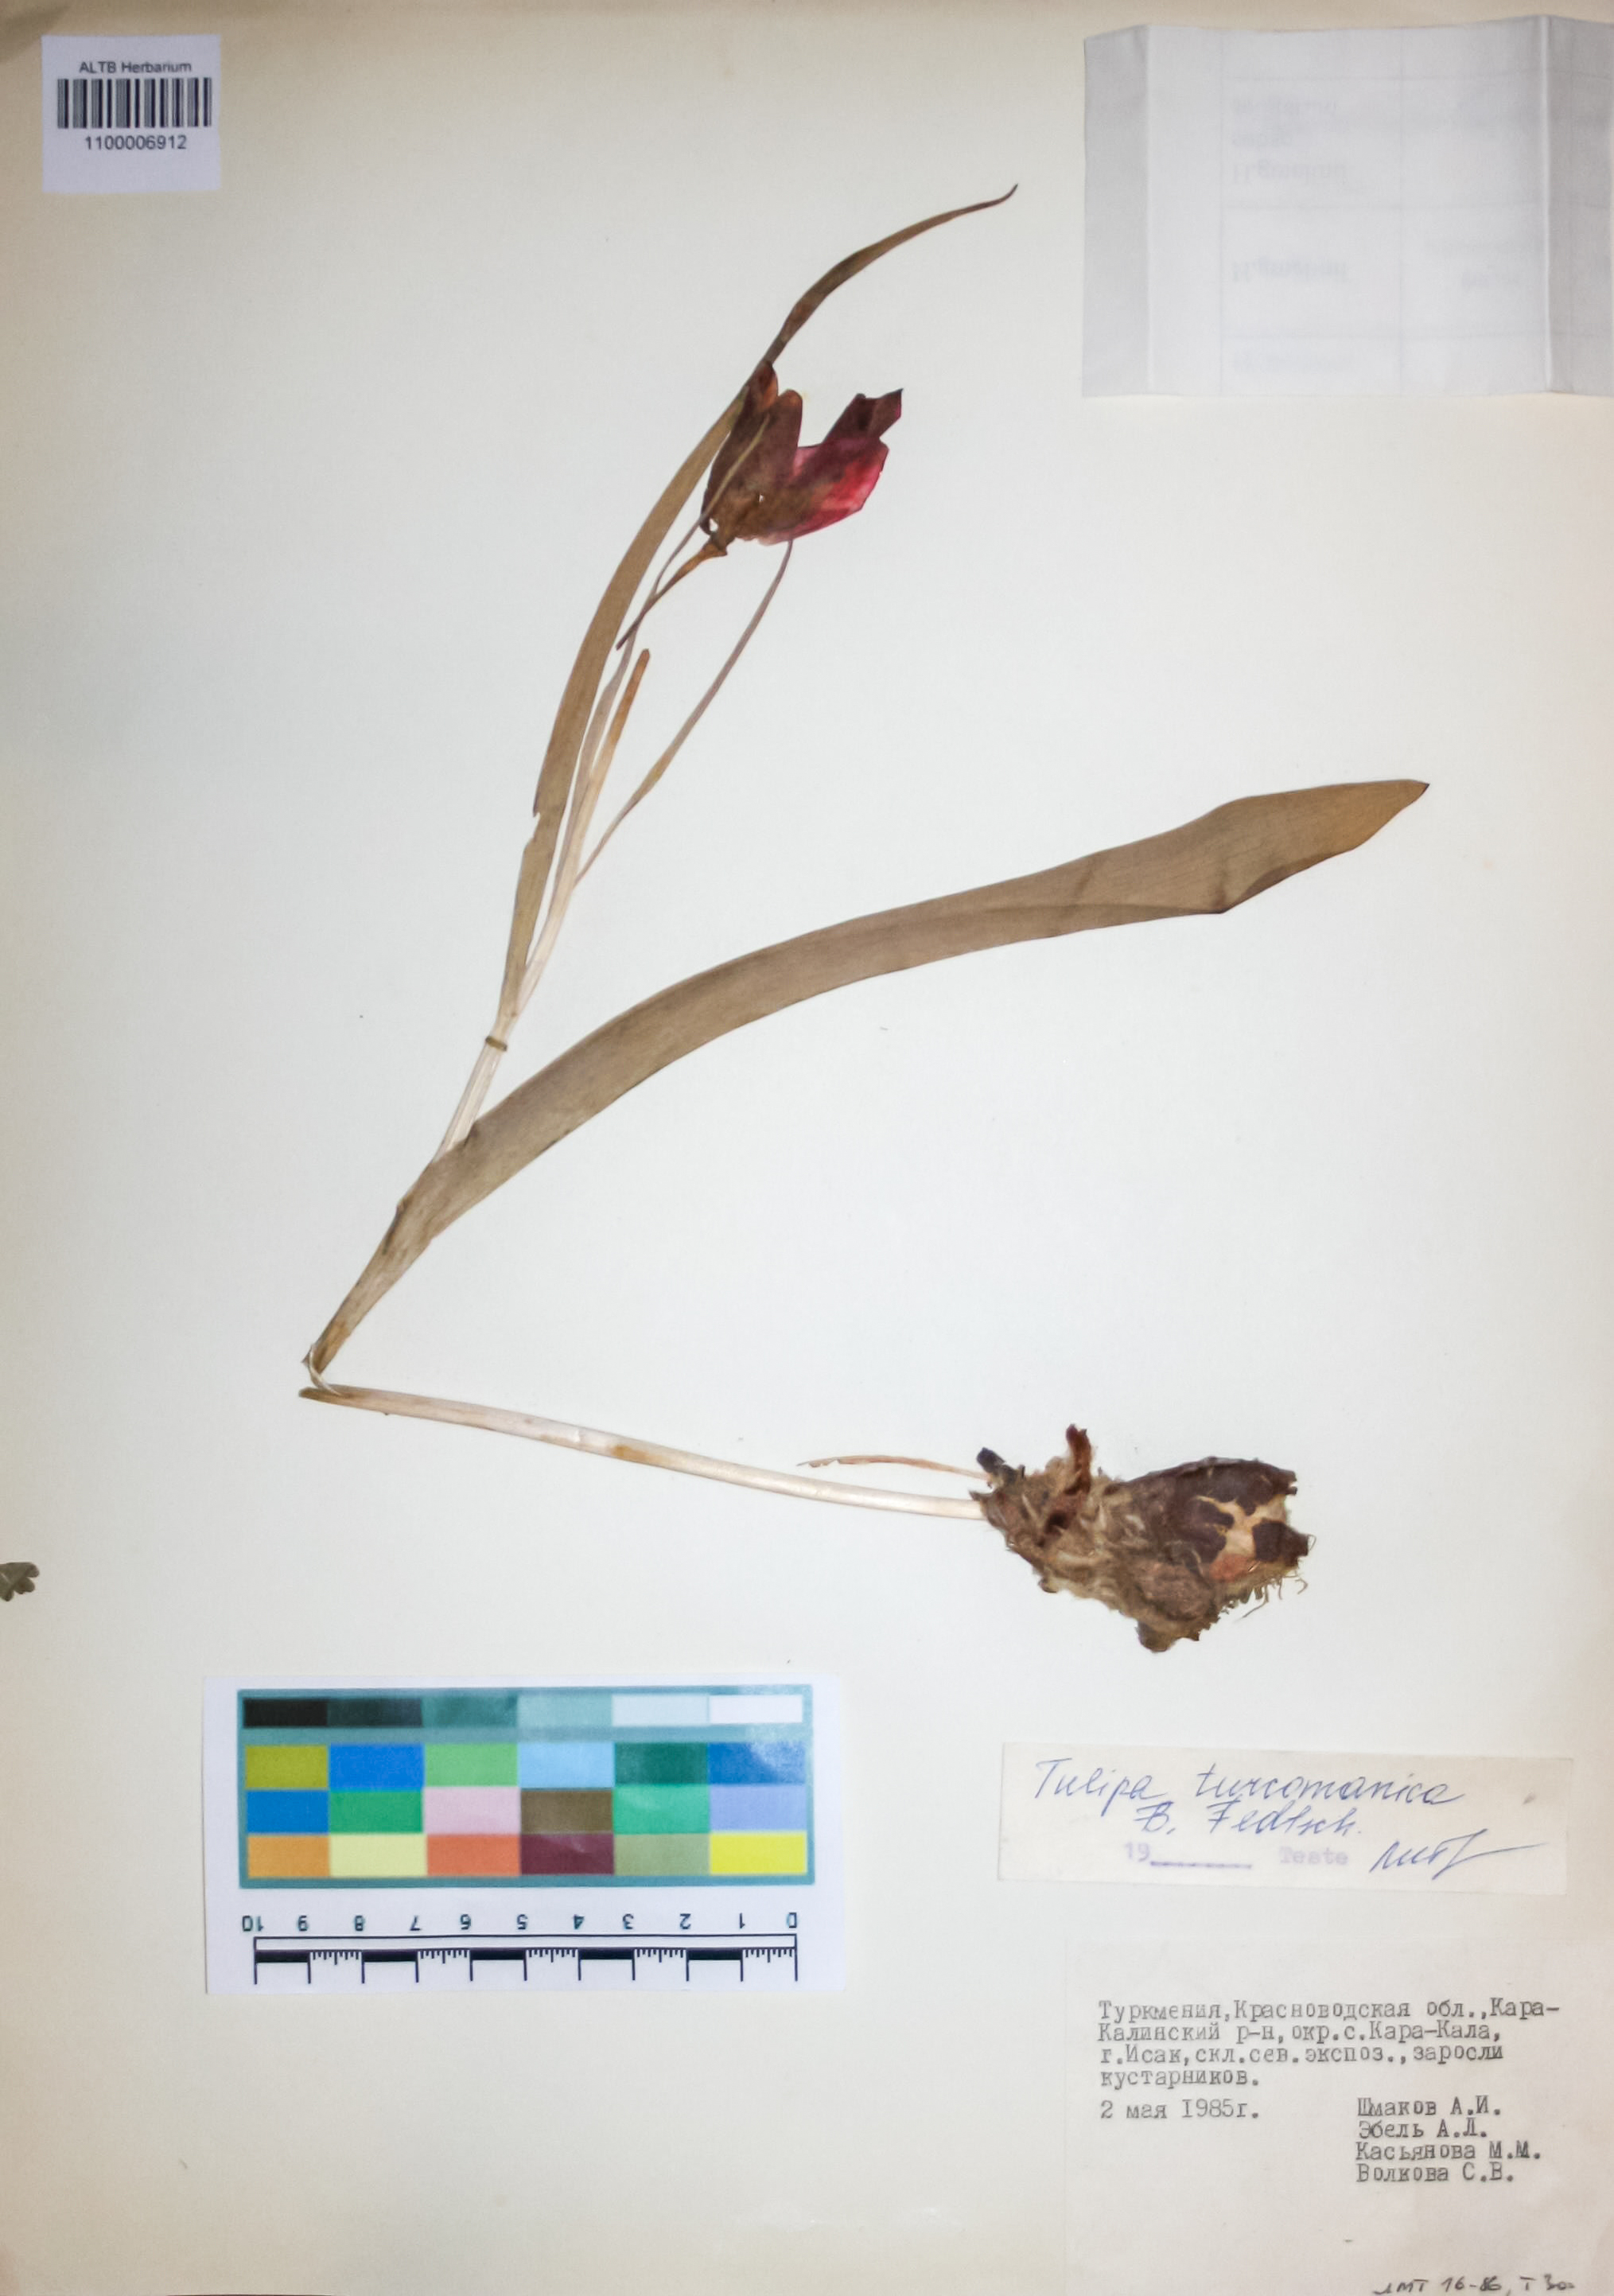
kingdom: Plantae
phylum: Tracheophyta
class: Liliopsida
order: Liliales
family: Liliaceae
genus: Tulipa
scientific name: Tulipa biflora
